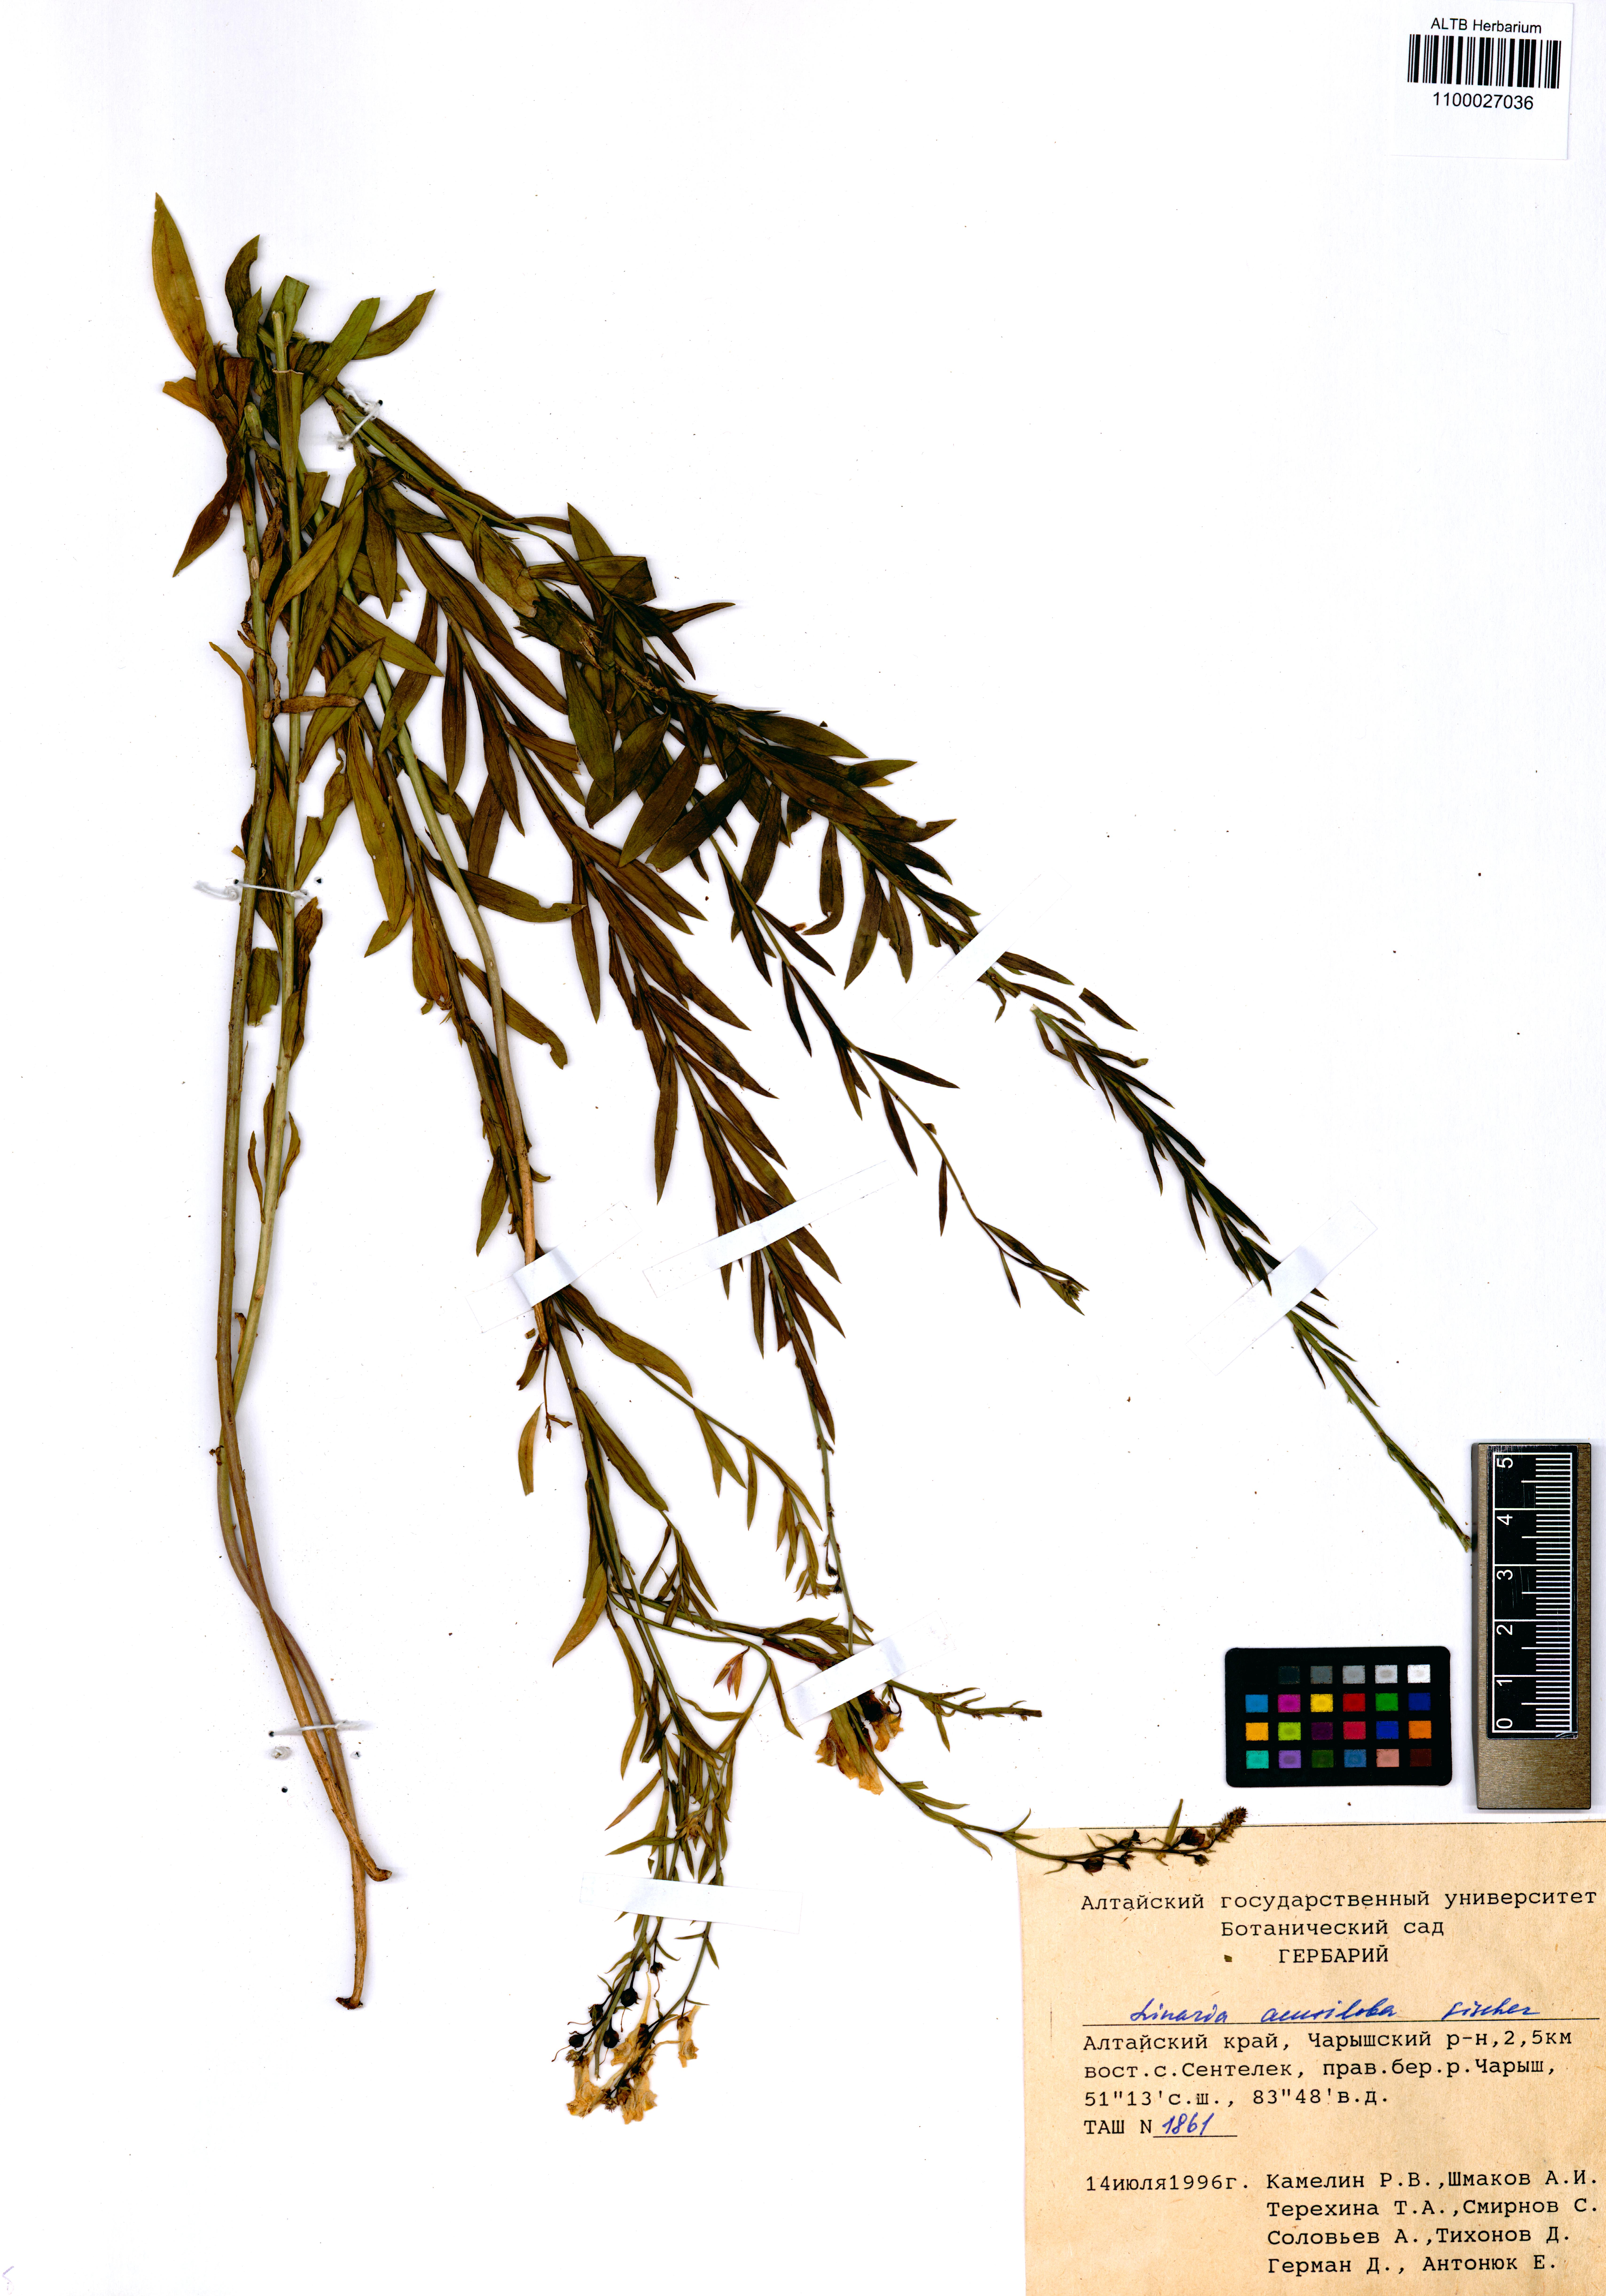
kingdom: Plantae
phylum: Tracheophyta
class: Magnoliopsida
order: Lamiales
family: Plantaginaceae
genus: Linaria
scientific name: Linaria acutiloba
